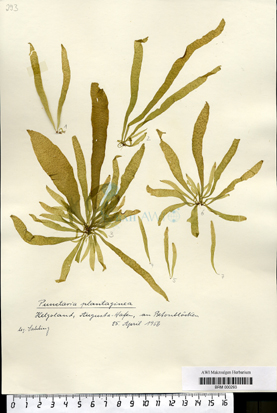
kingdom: Chromista
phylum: Ochrophyta
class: Phaeophyceae
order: Ectocarpales
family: Chordariaceae
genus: Punctaria
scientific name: Punctaria plantaginea
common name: Ribbon weed
